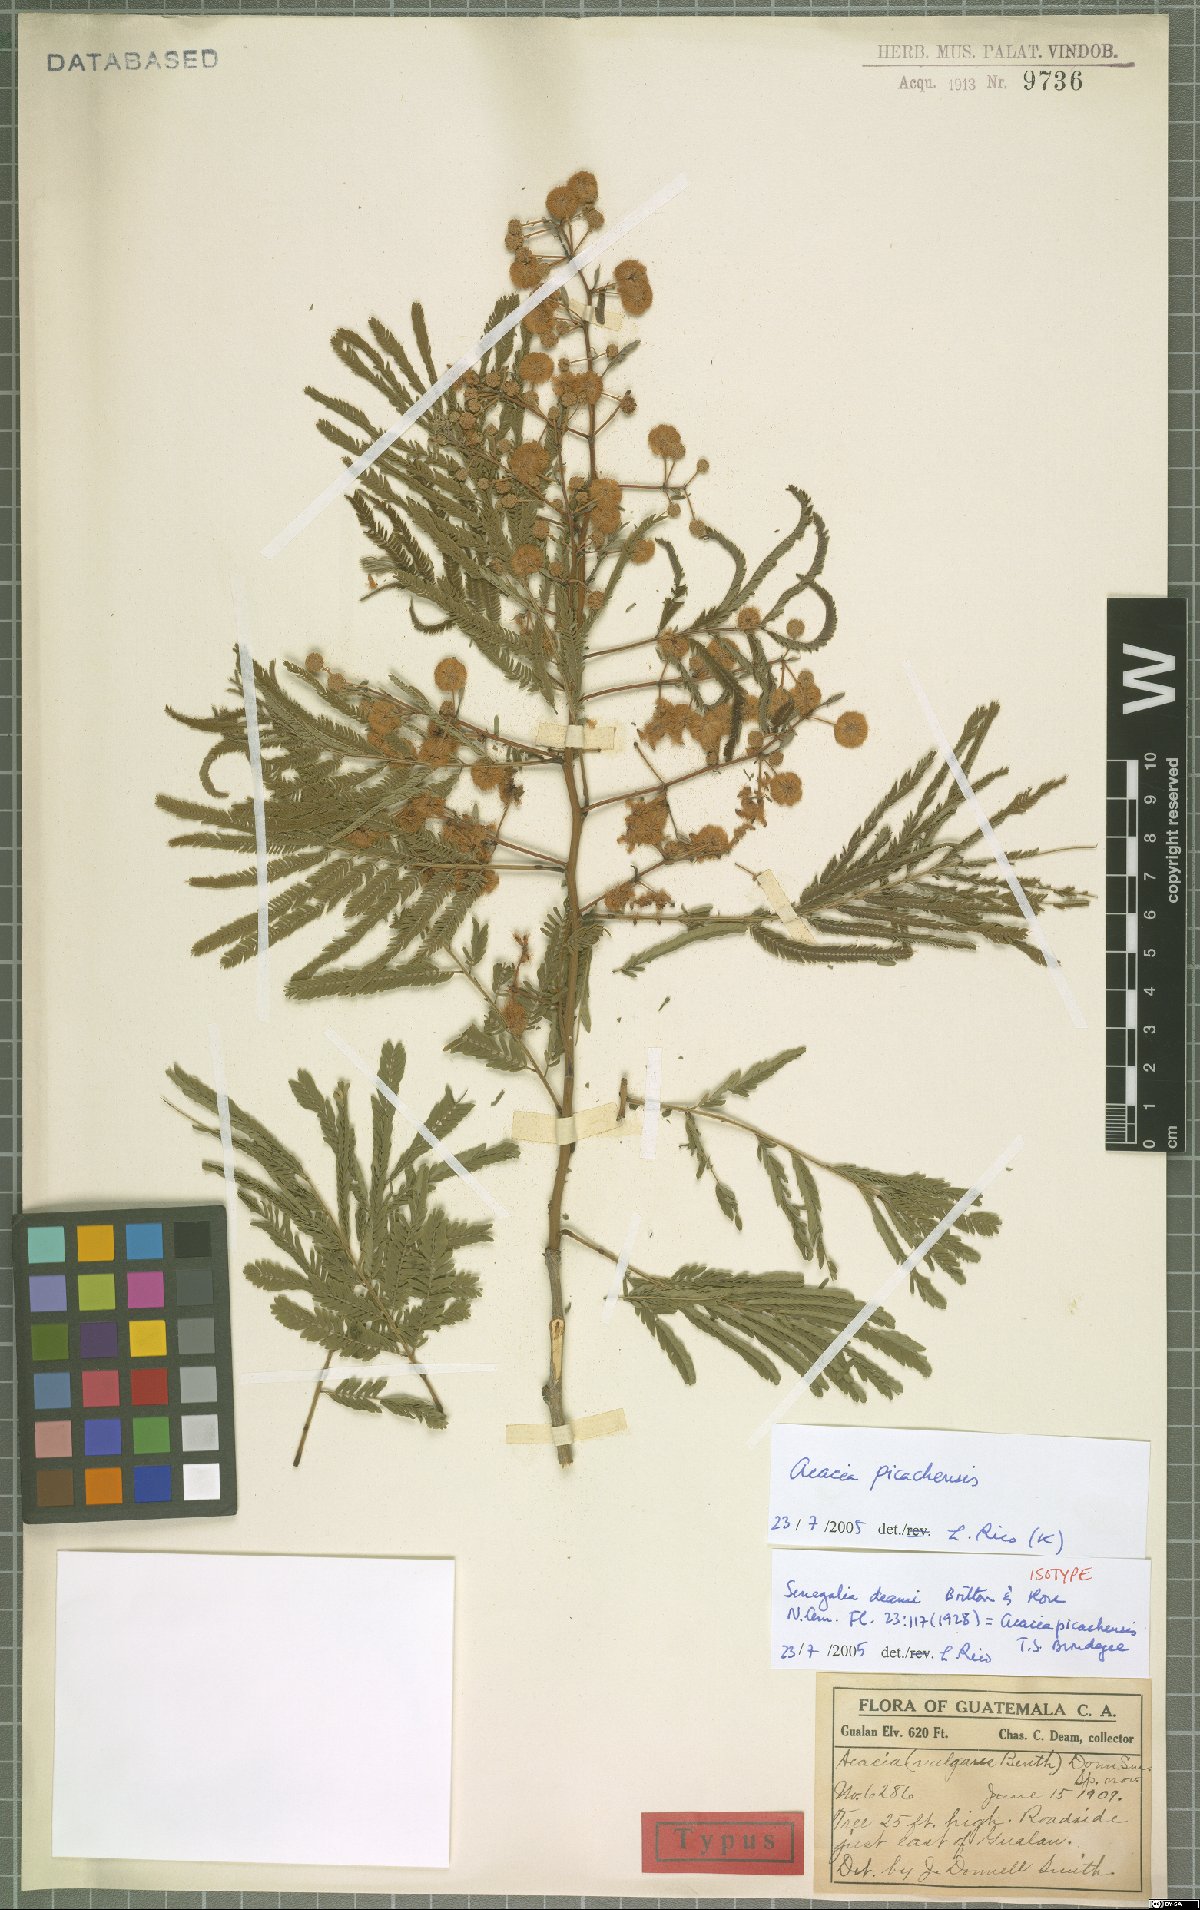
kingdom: Plantae
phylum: Tracheophyta
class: Magnoliopsida
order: Fabales
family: Fabaceae
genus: Senegalia
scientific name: Senegalia picachensis
